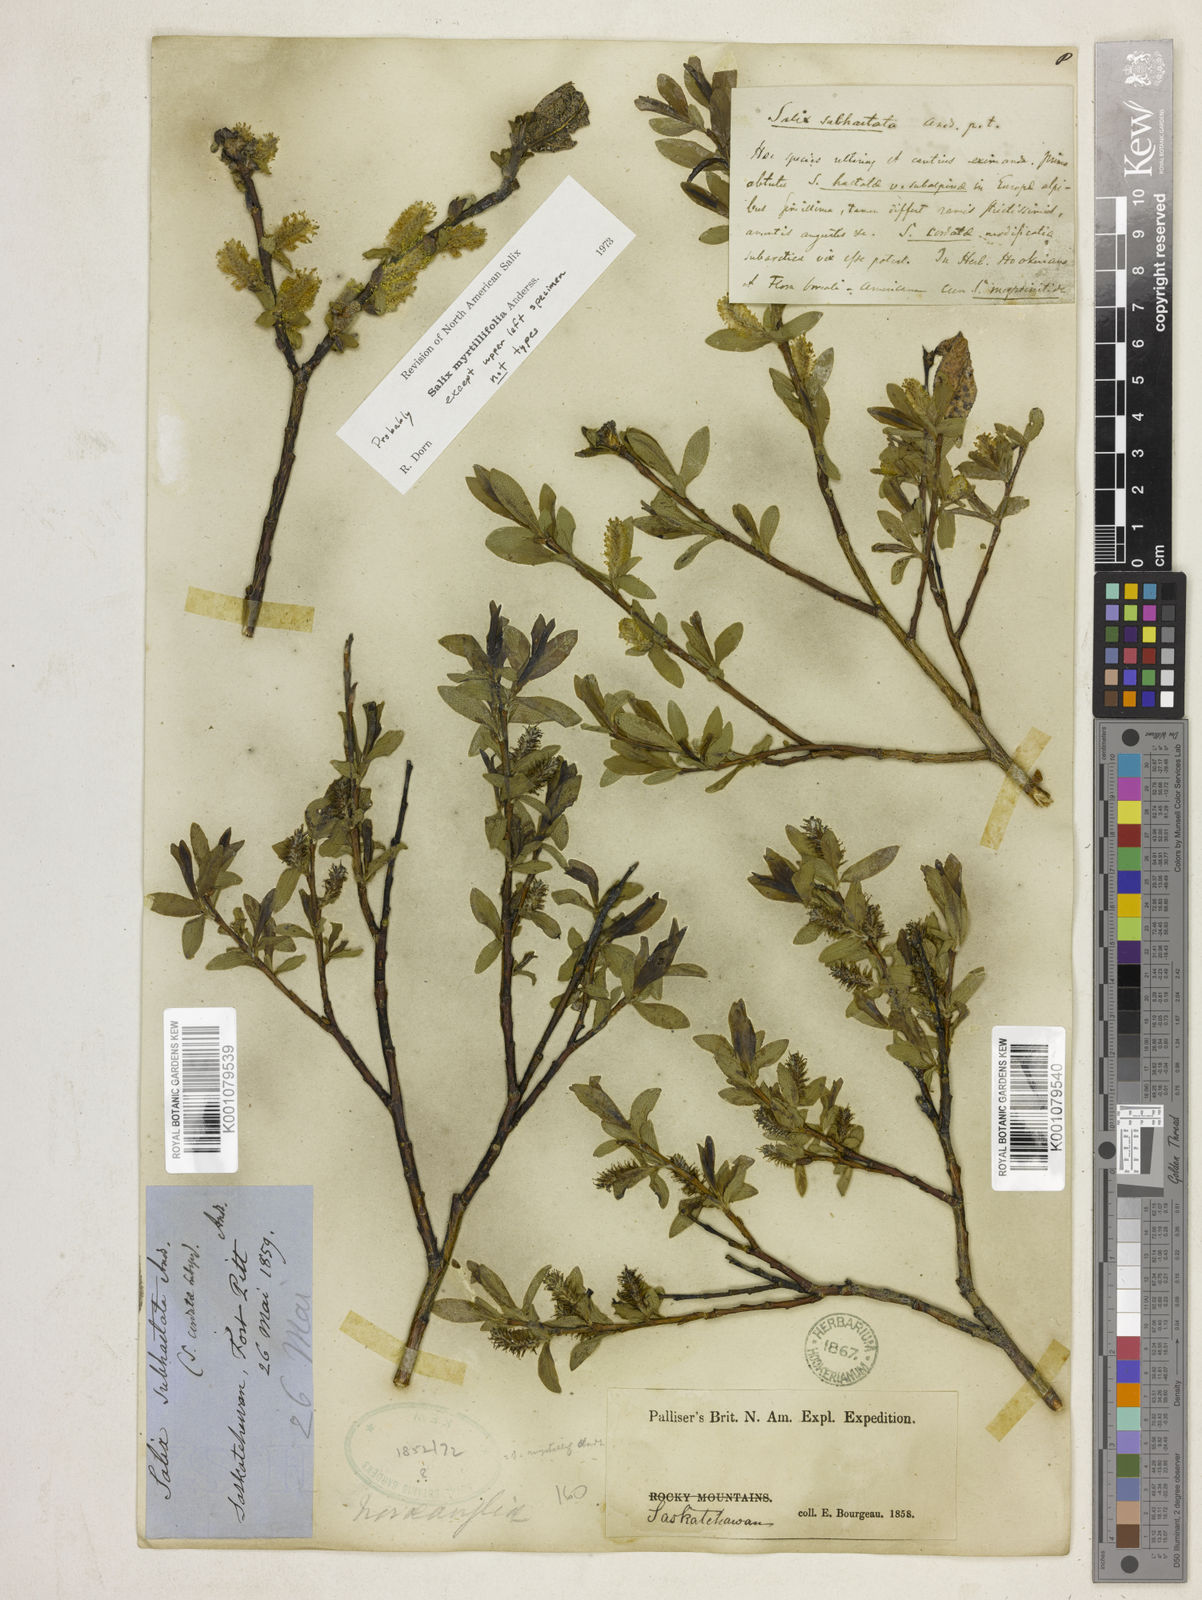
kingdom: Plantae
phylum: Tracheophyta
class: Magnoliopsida
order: Malpighiales
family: Salicaceae
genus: Salix
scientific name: Salix myrtillifolia
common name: Bilberry willow
